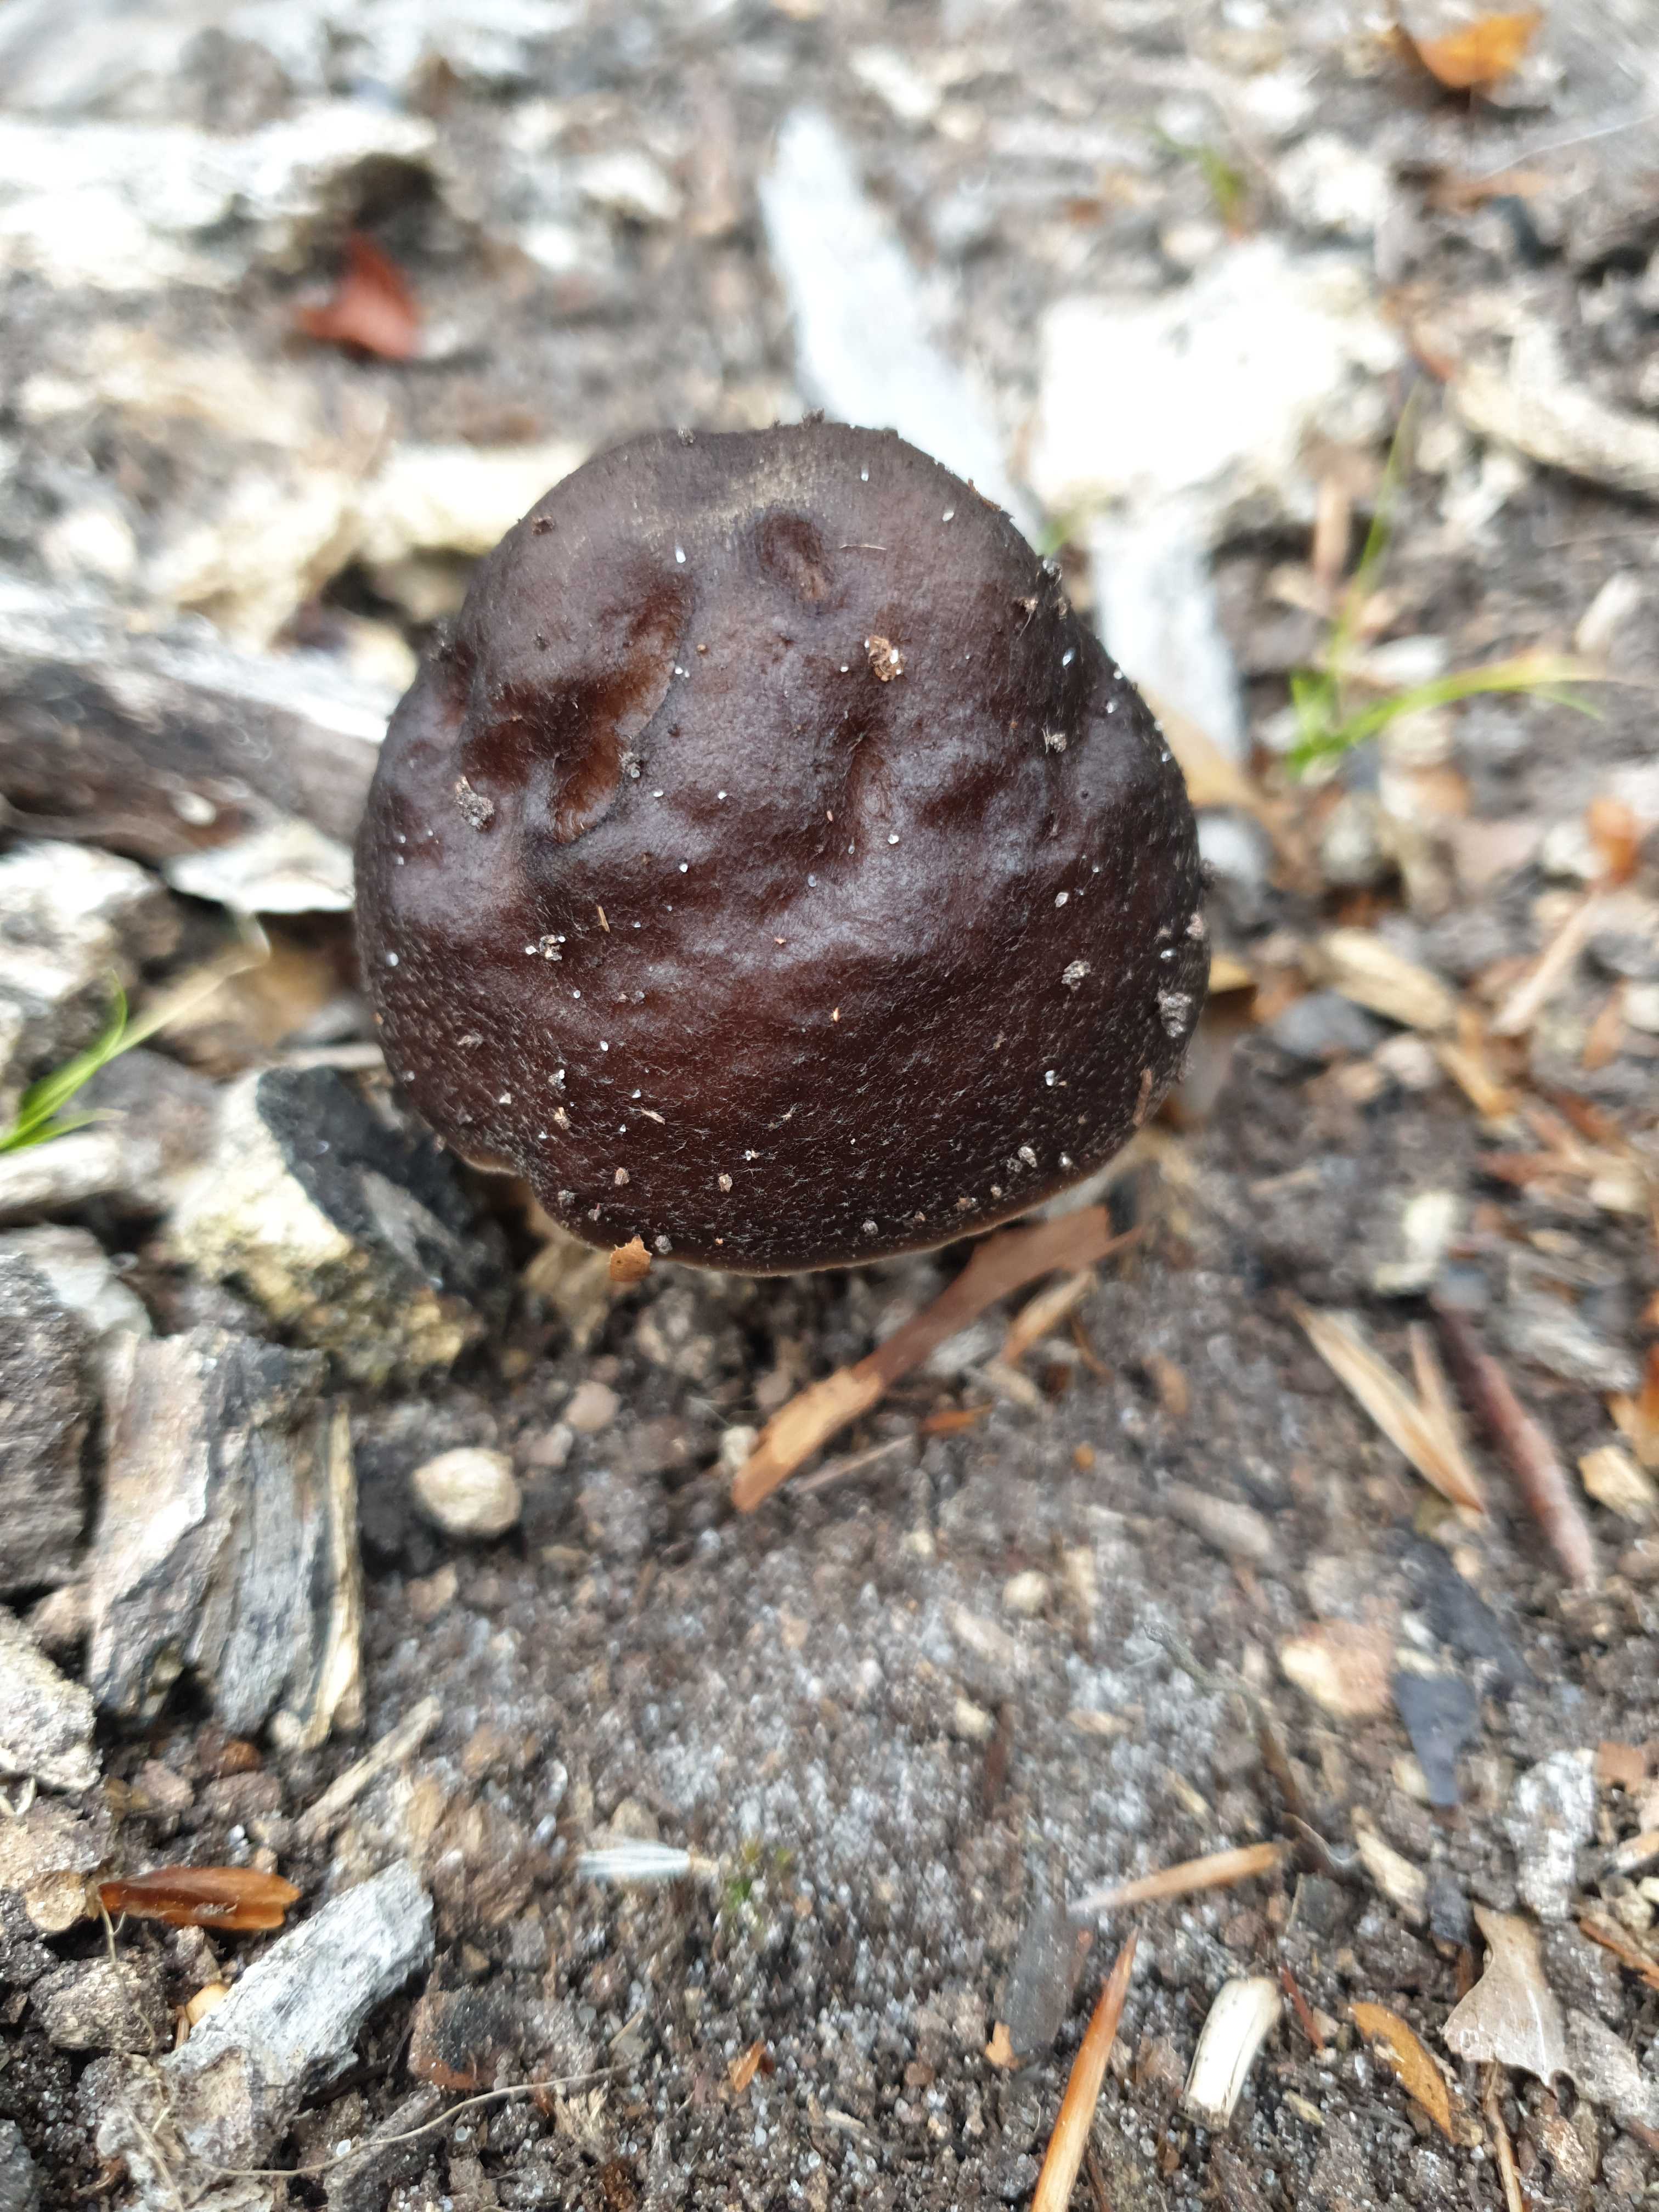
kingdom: Fungi
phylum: Basidiomycota
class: Agaricomycetes
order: Agaricales
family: Pluteaceae
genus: Pluteus
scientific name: Pluteus cervinus
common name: sodfarvet skærmhat
